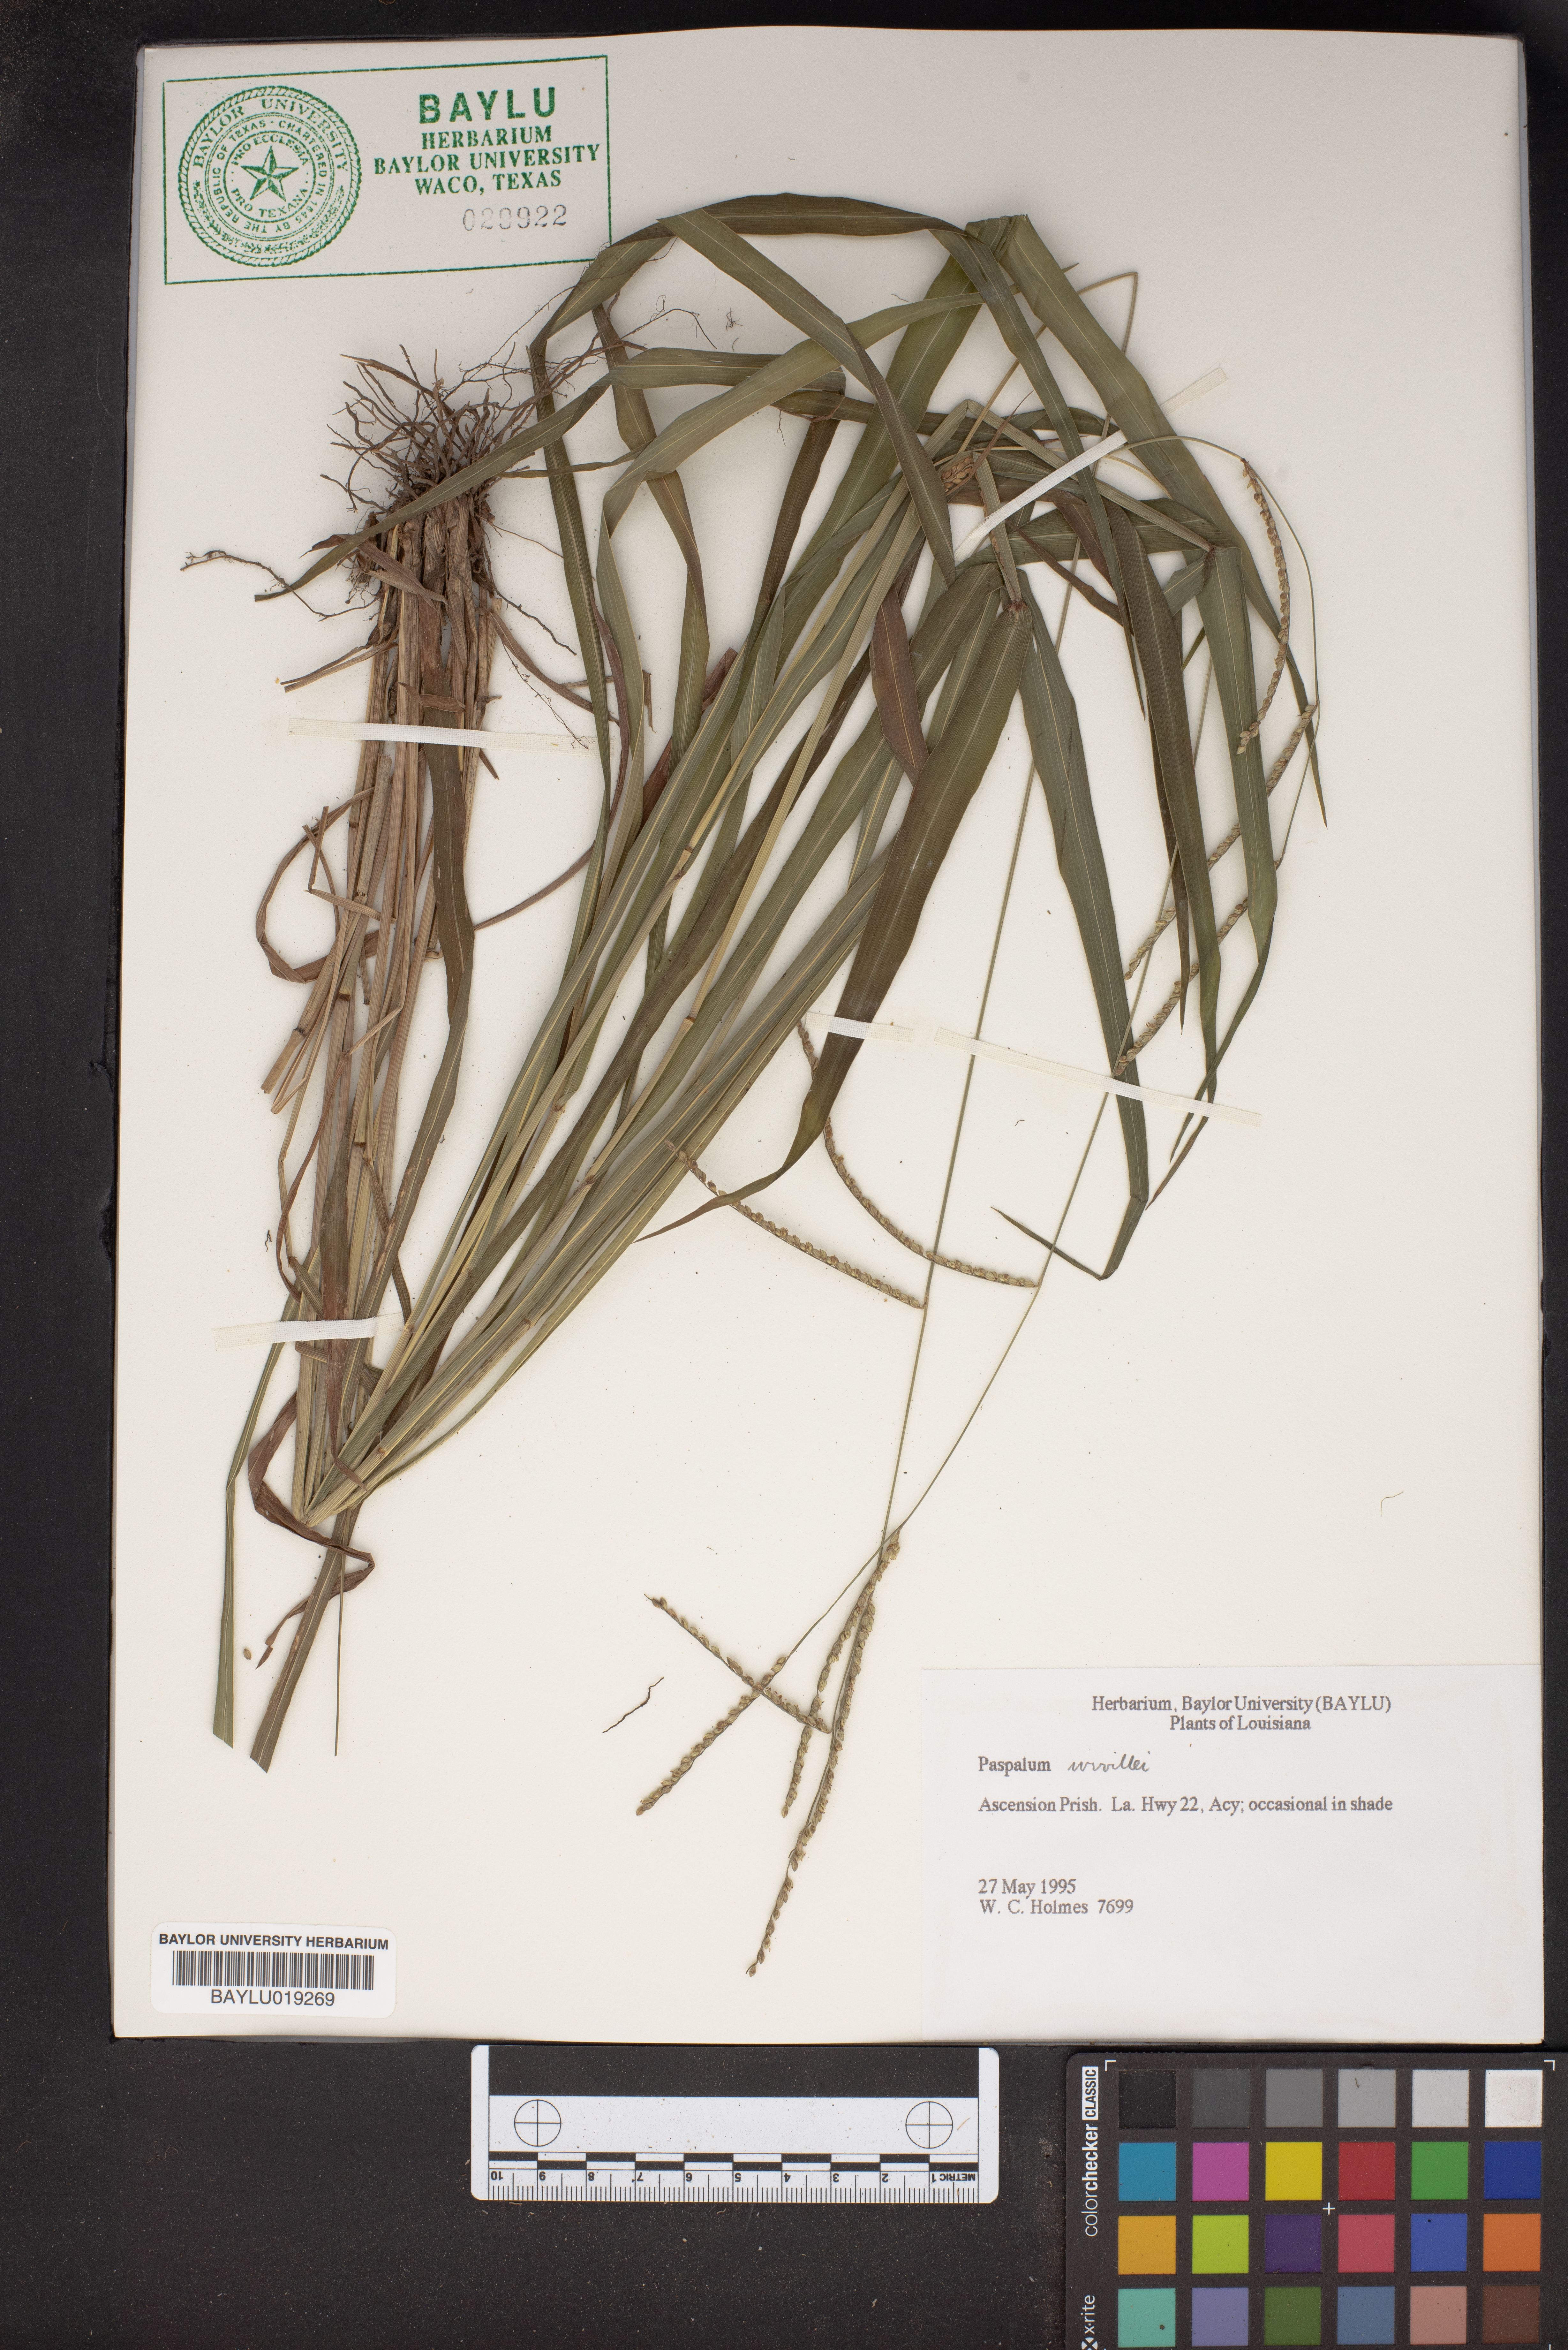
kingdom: Plantae
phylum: Tracheophyta
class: Liliopsida
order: Poales
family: Poaceae
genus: Paspalum
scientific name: Paspalum wrightii
